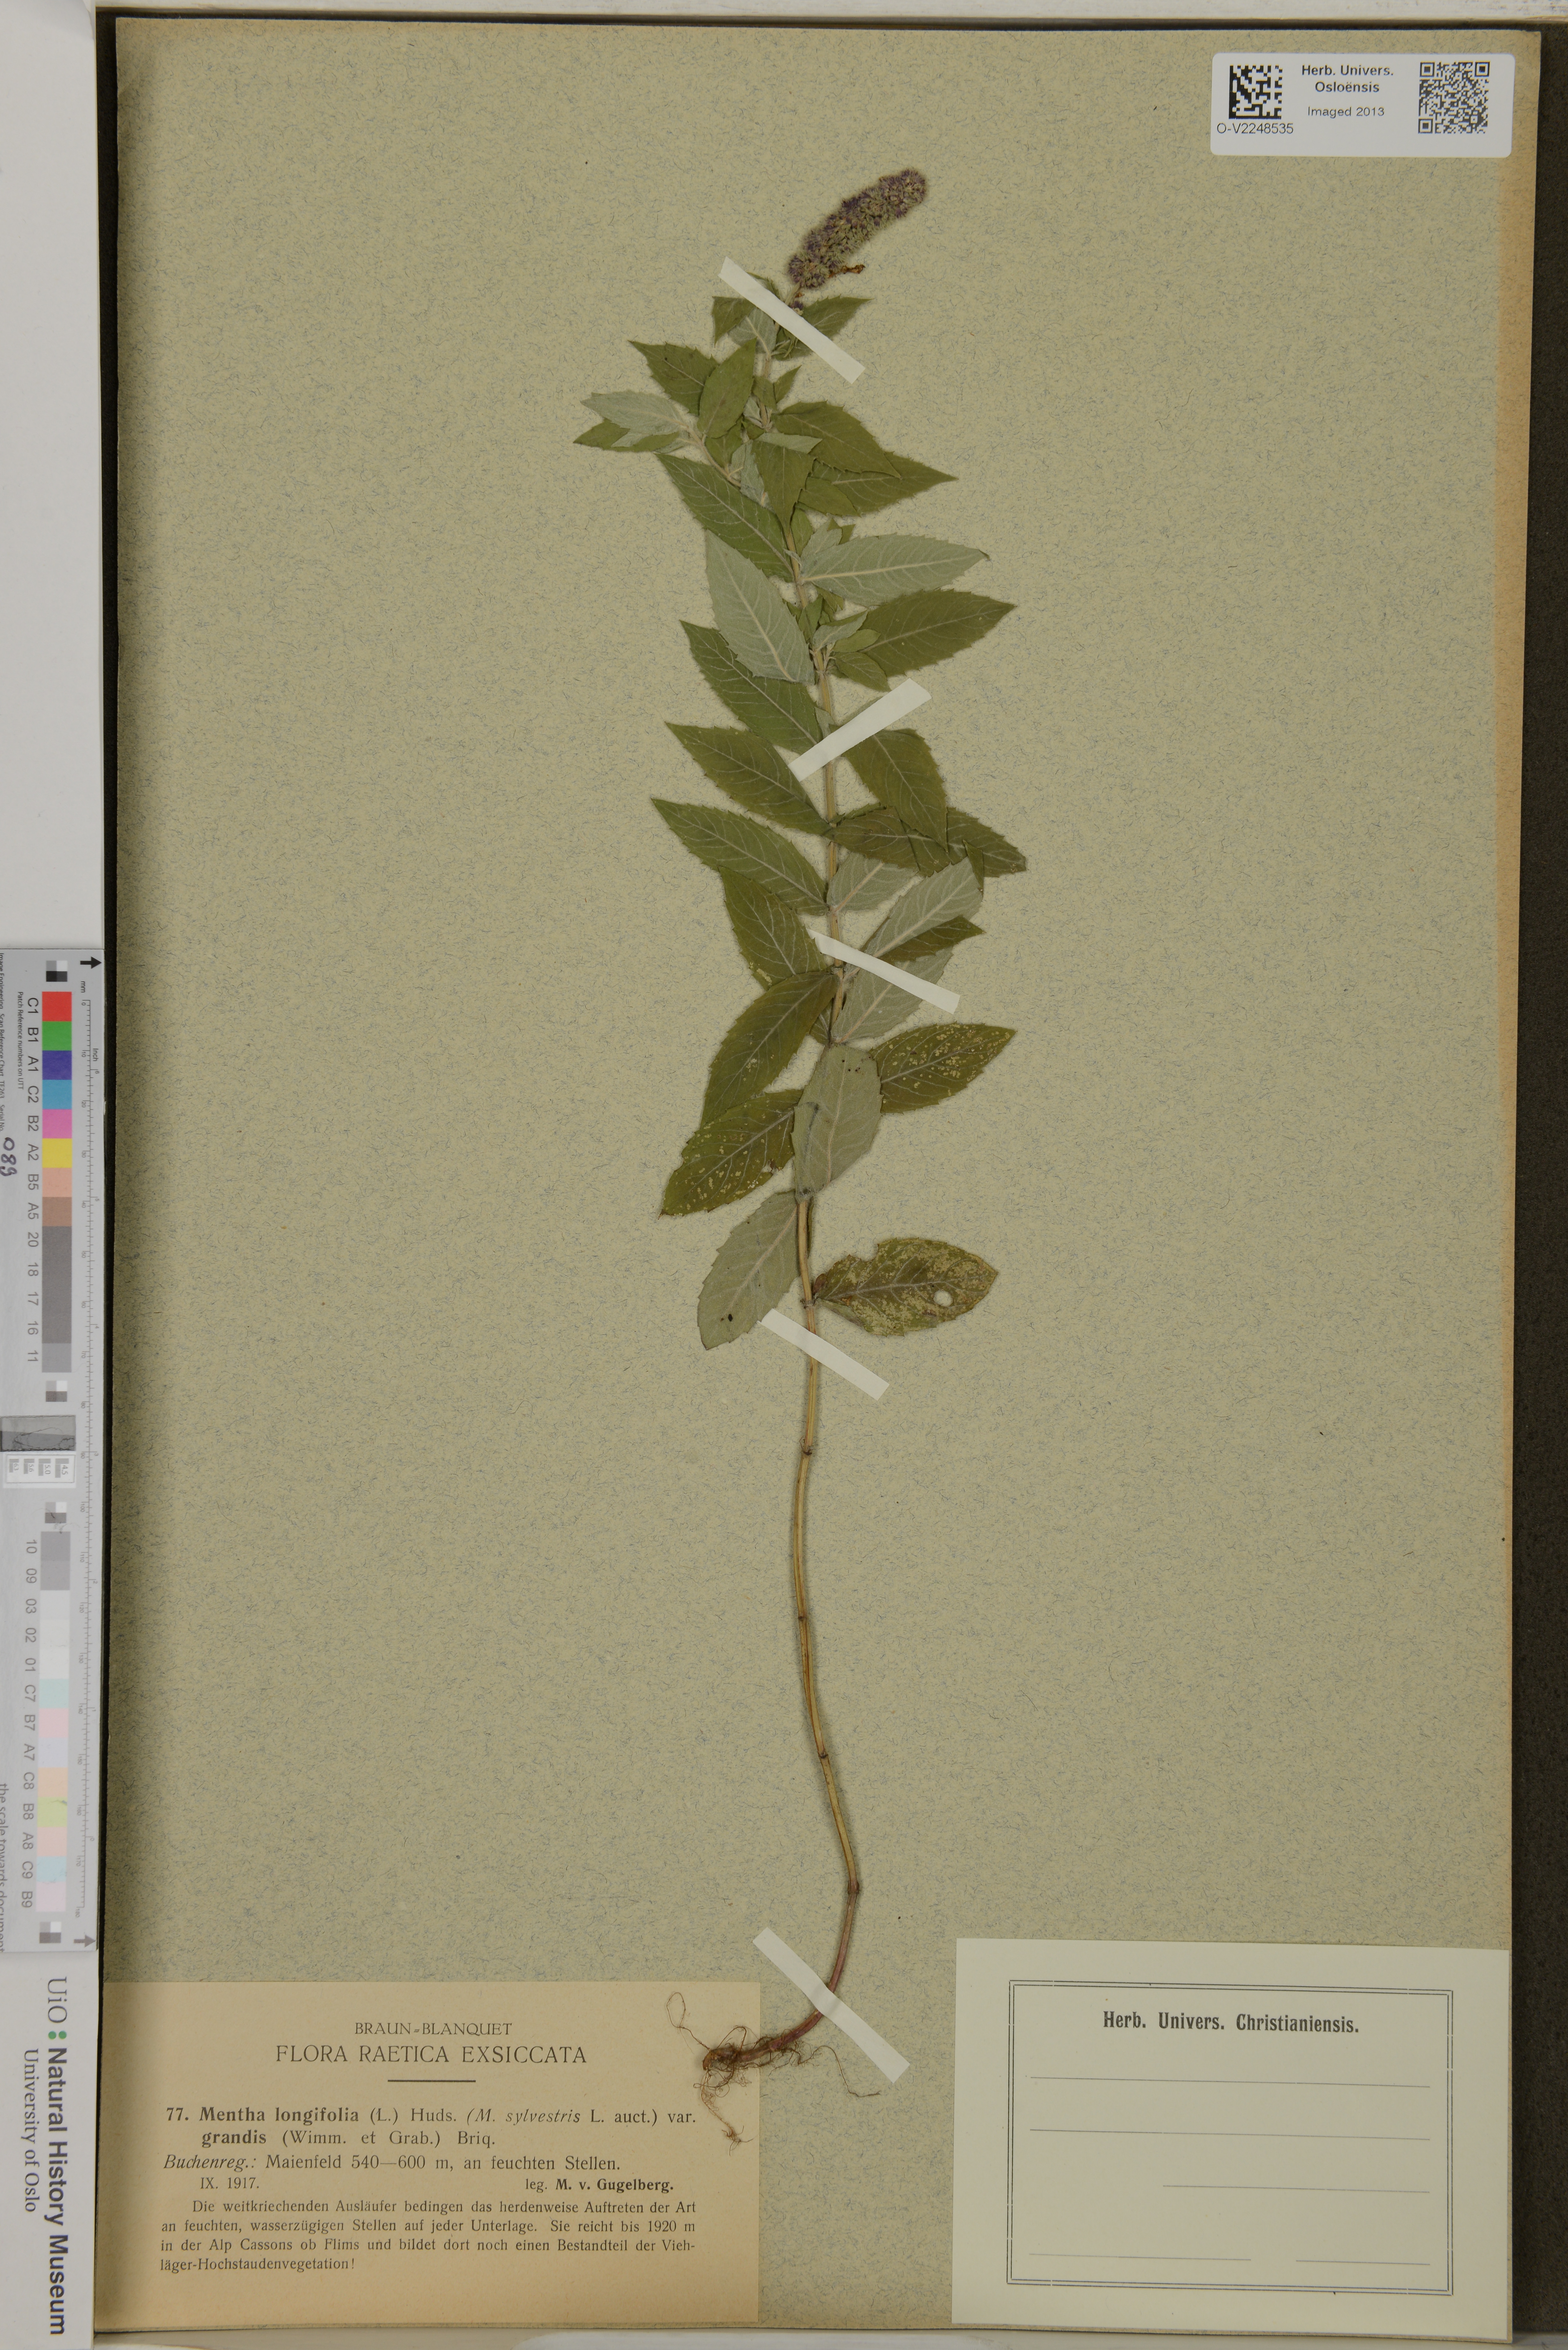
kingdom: Plantae
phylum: Tracheophyta
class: Magnoliopsida
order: Lamiales
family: Lamiaceae
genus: Mentha
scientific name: Mentha longifolia
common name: Horse mint
